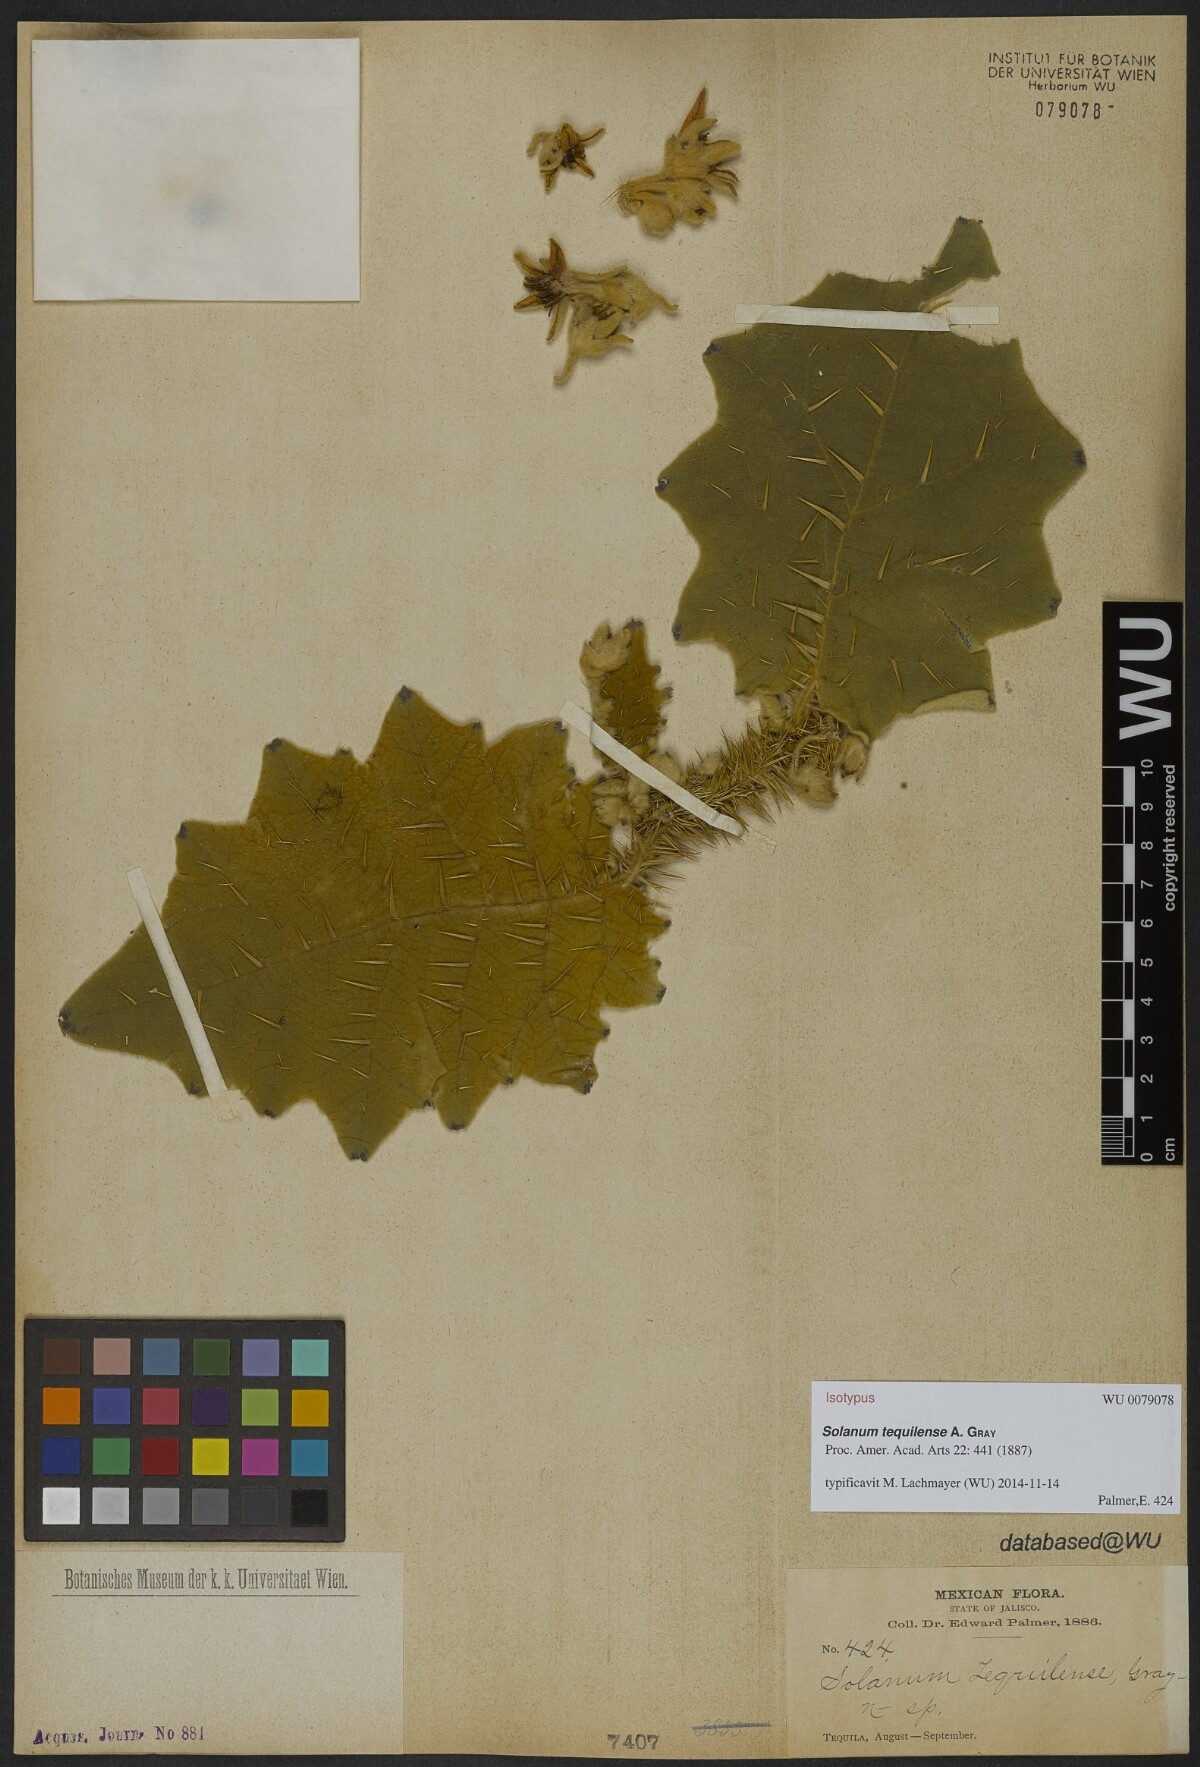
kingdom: Plantae
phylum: Tracheophyta
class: Magnoliopsida
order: Solanales
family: Solanaceae
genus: Solanum
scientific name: Solanum candidum
